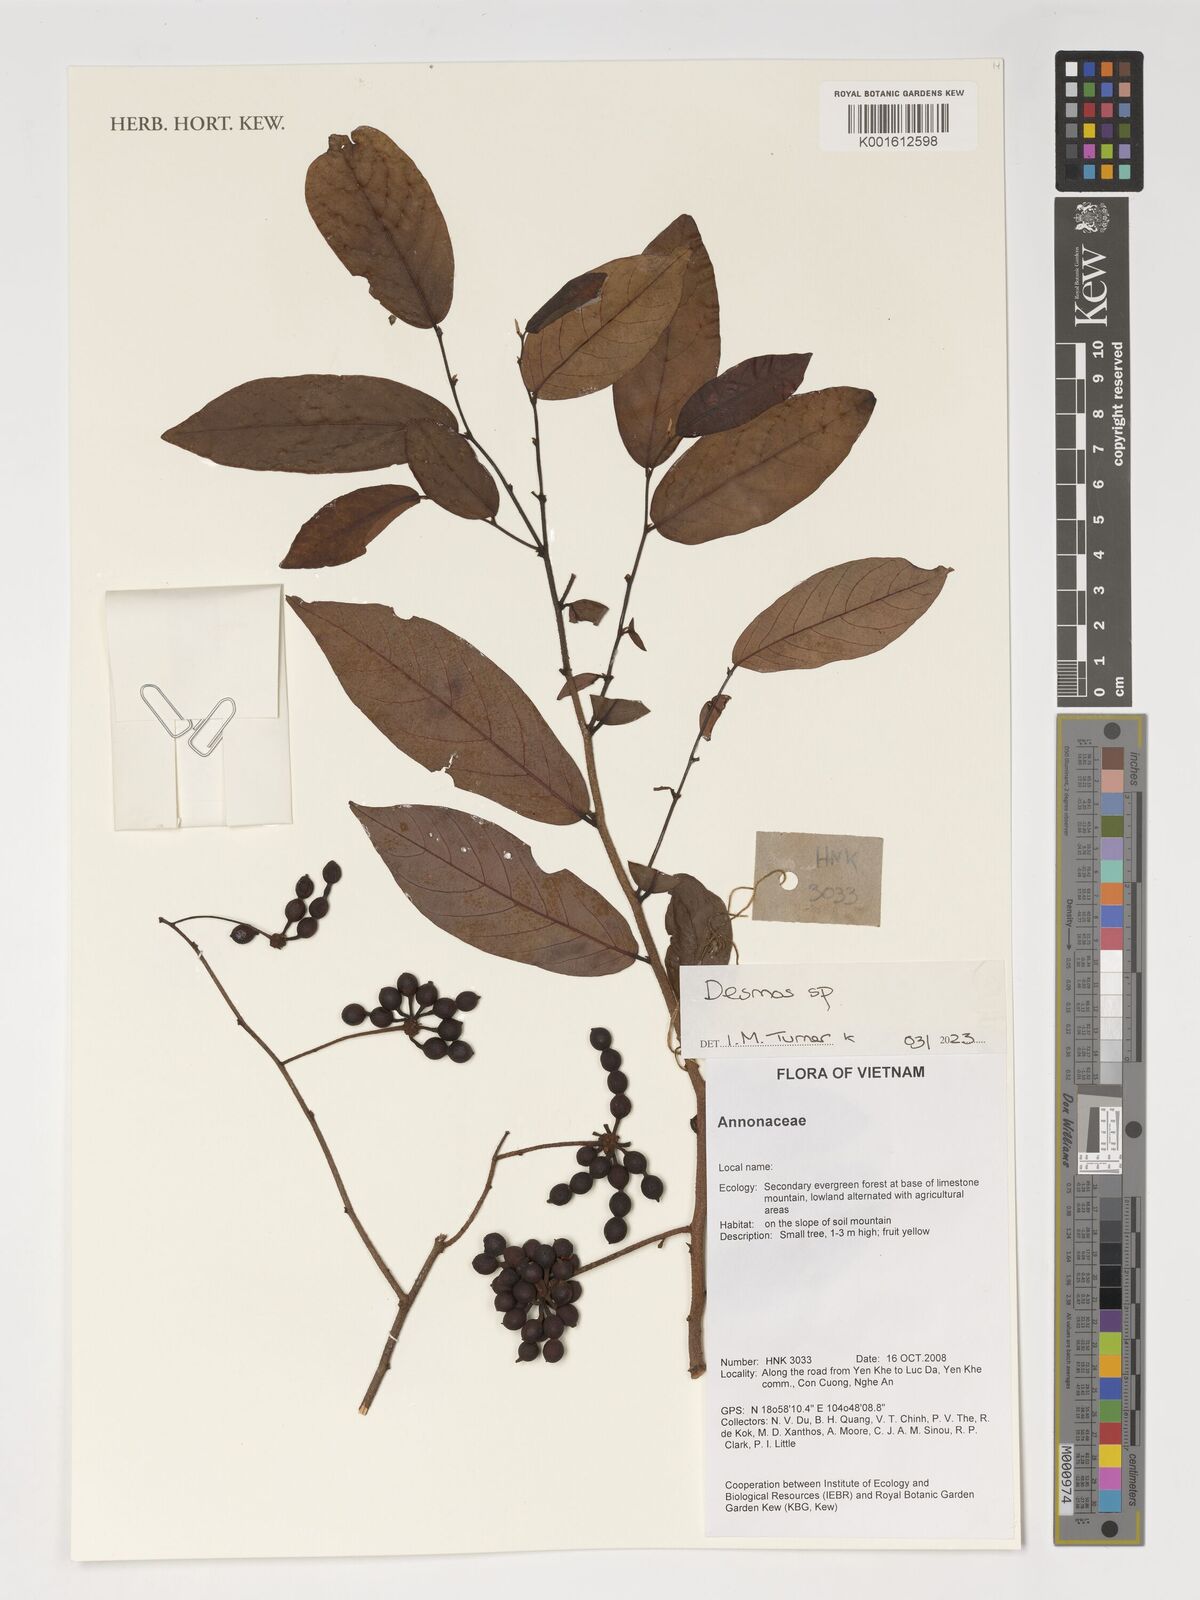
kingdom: Plantae
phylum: Tracheophyta
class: Magnoliopsida
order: Magnoliales
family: Annonaceae
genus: Desmos
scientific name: Desmos
